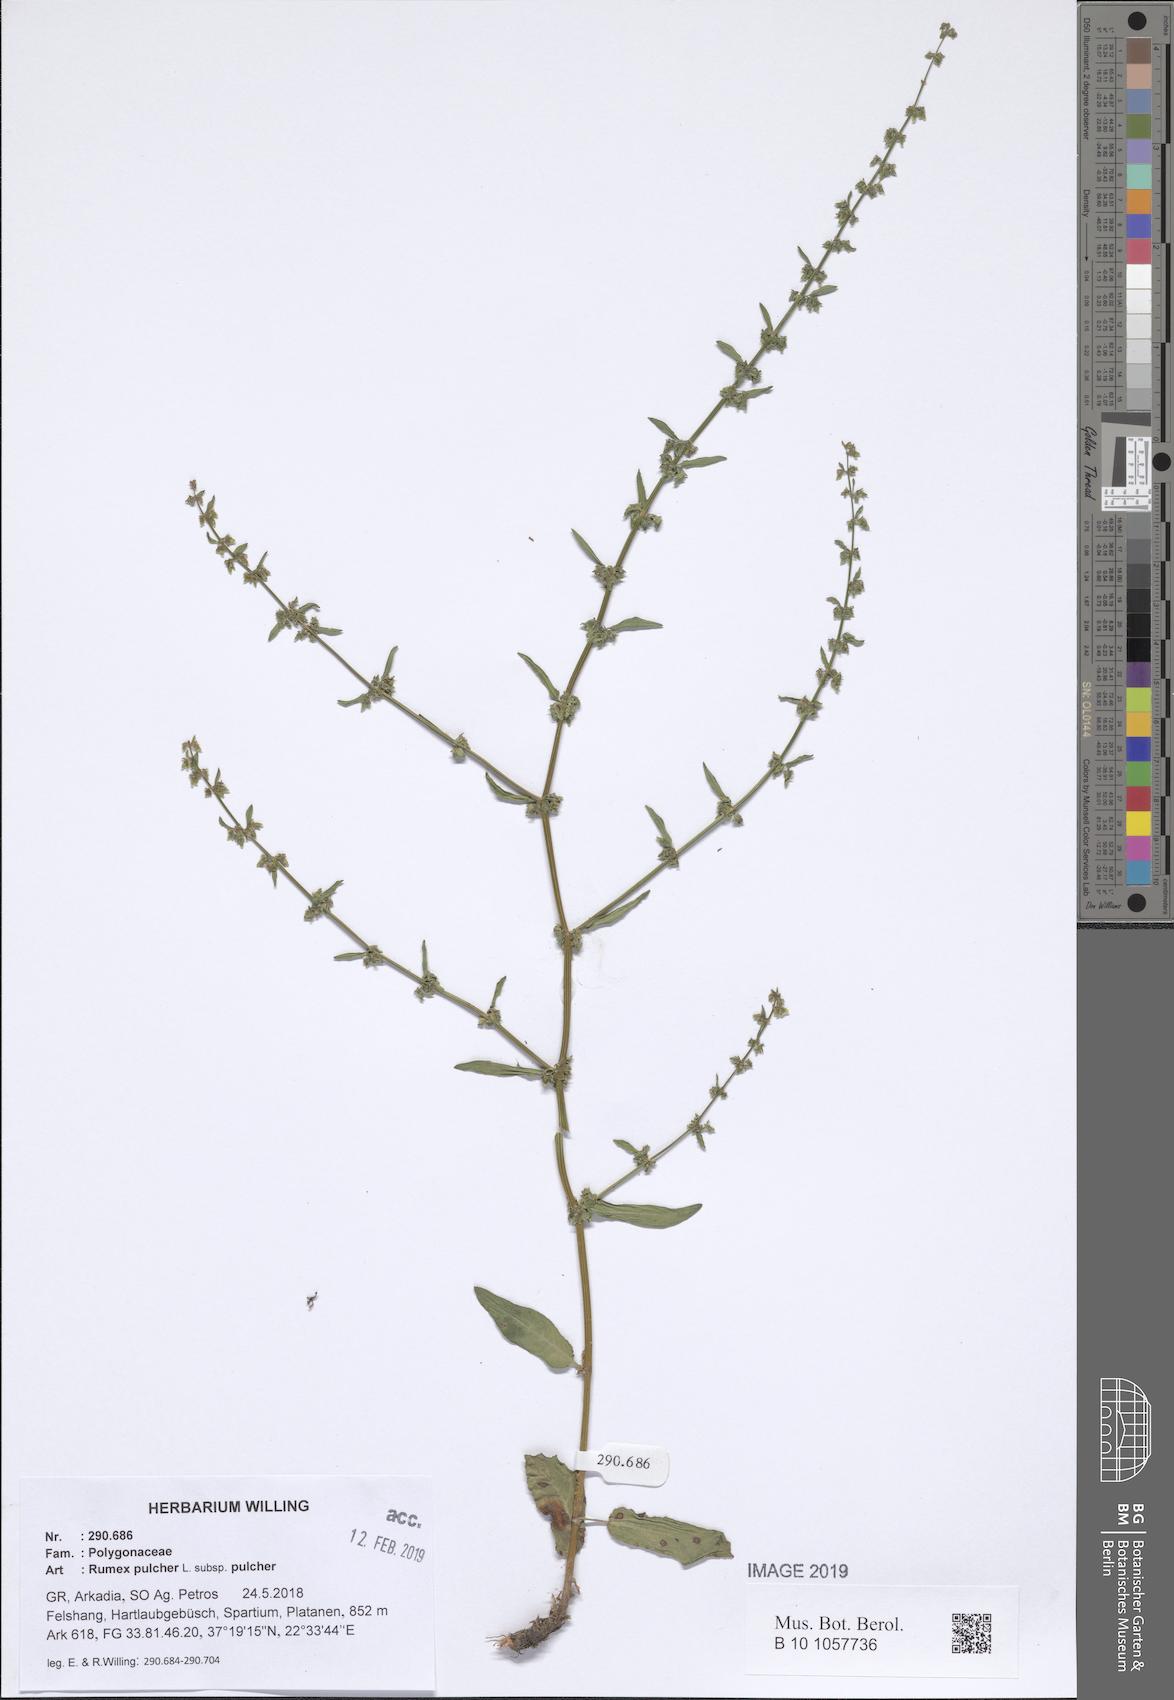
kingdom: Plantae
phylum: Tracheophyta
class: Magnoliopsida
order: Caryophyllales
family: Polygonaceae
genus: Rumex
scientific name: Rumex pulcher
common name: Fiddle dock
